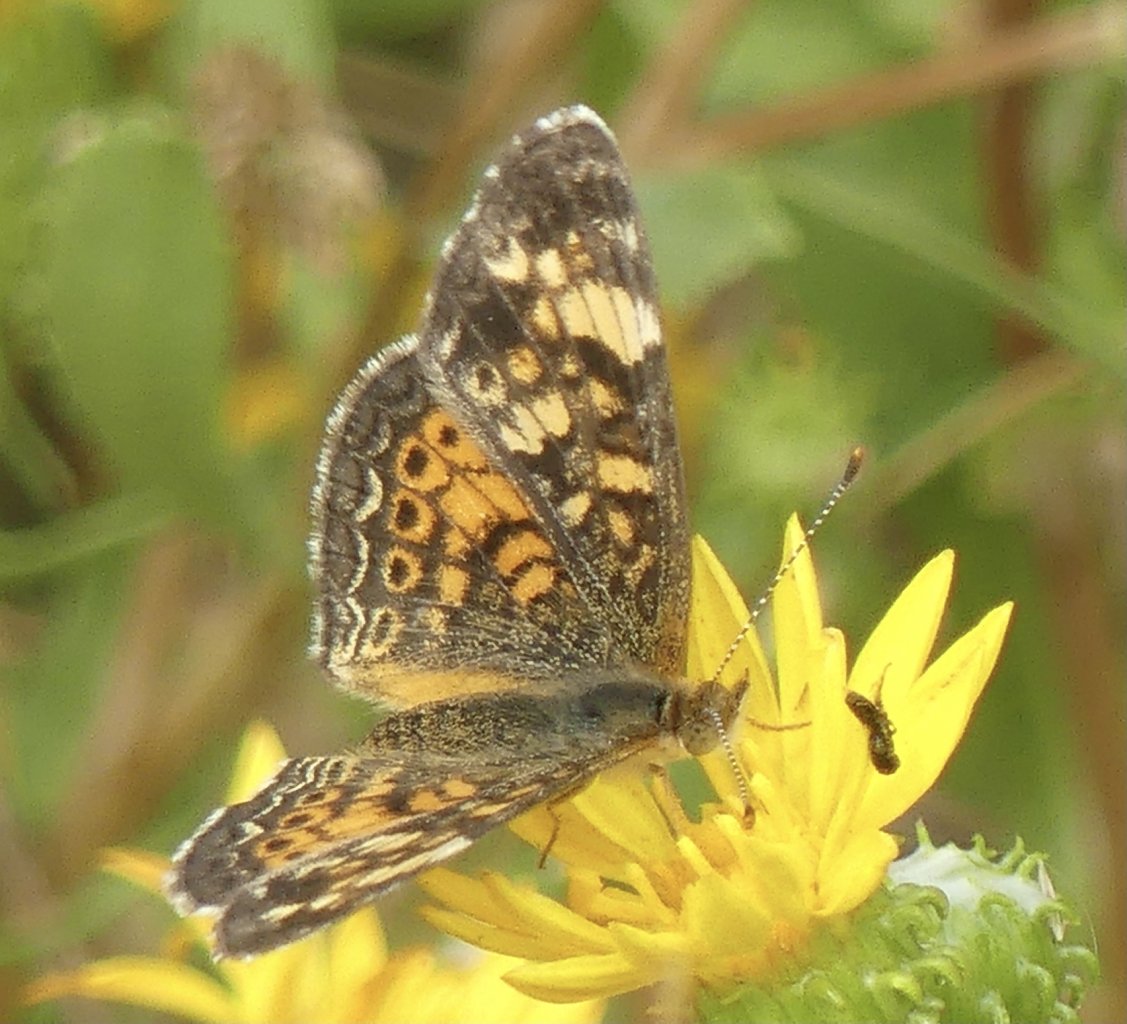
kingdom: Animalia
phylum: Arthropoda
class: Insecta
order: Lepidoptera
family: Nymphalidae
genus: Phyciodes
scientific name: Phyciodes tharos
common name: Pearl Crescent
